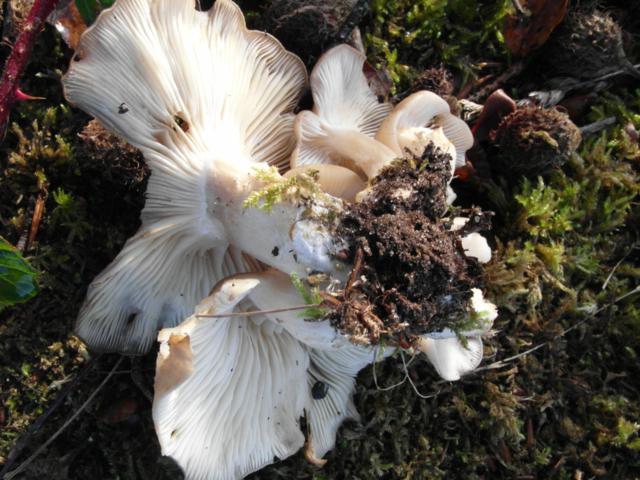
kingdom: Fungi
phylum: Basidiomycota
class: Agaricomycetes
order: Agaricales
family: Lyophyllaceae
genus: Lyophyllum
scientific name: Lyophyllum decastes
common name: røggrå gråblad
